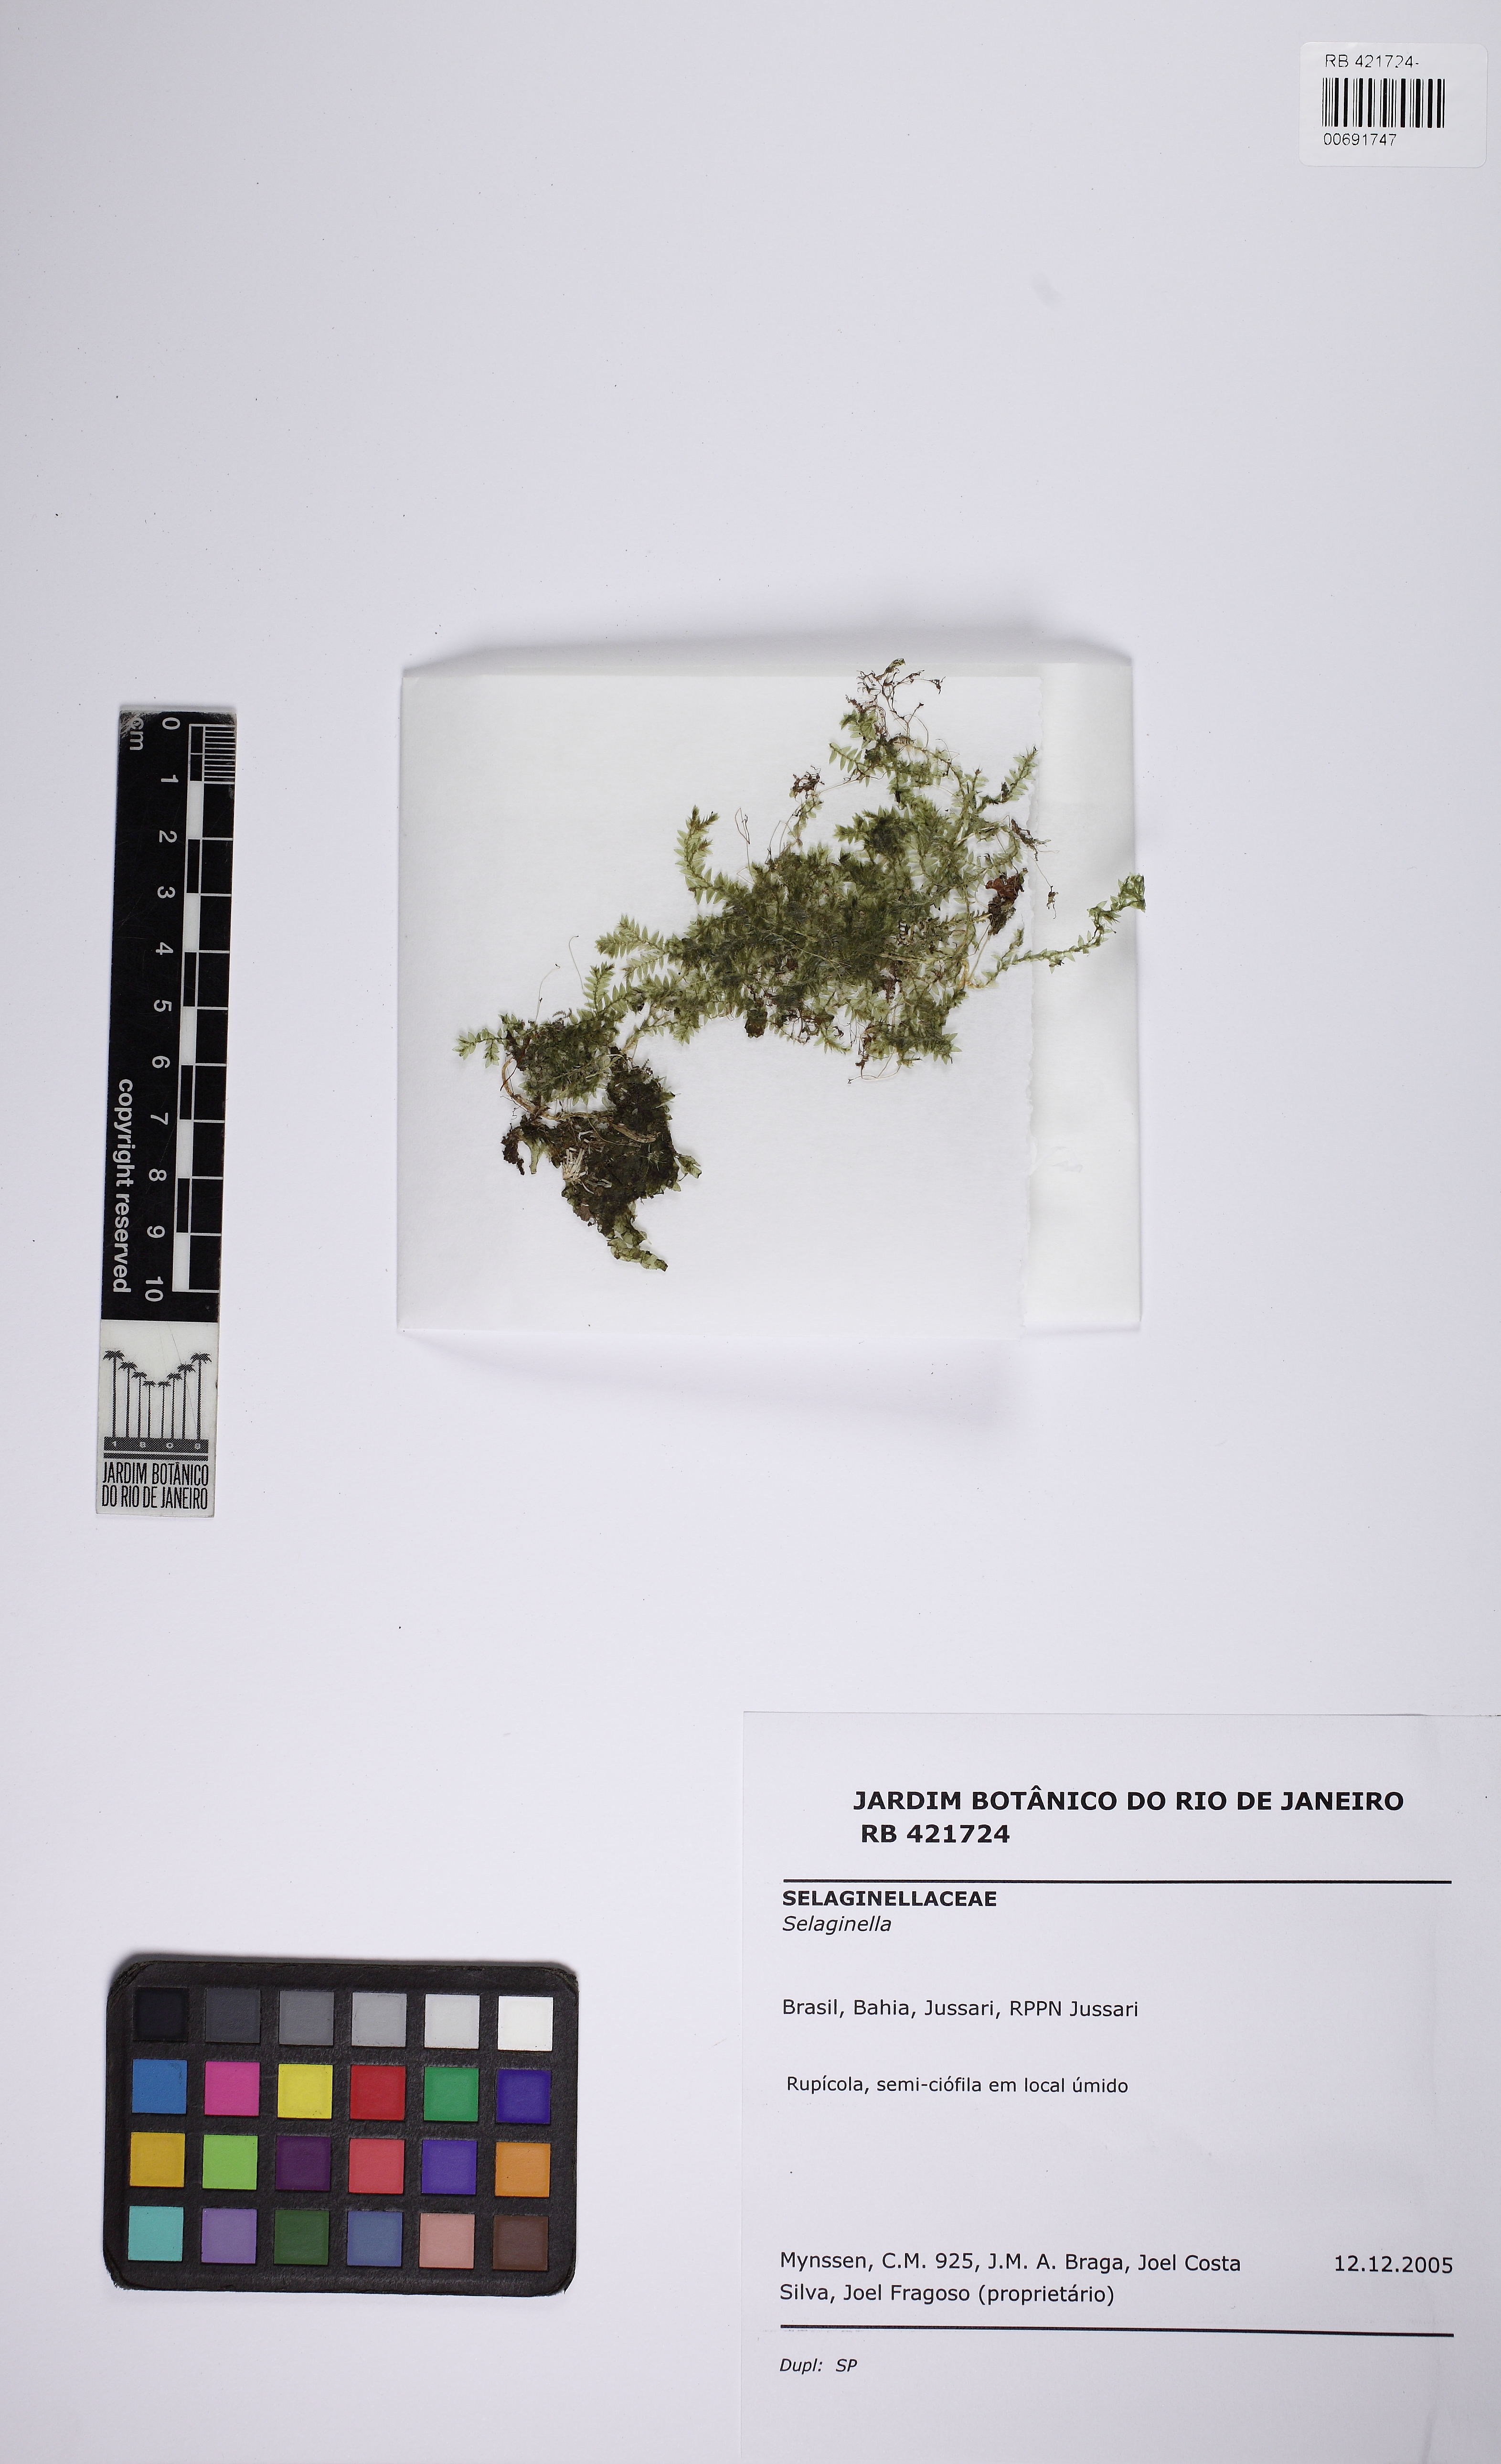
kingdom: Plantae
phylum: Tracheophyta
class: Lycopodiopsida
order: Selaginellales
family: Selaginellaceae
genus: Selaginella
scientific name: Selaginella tenella
